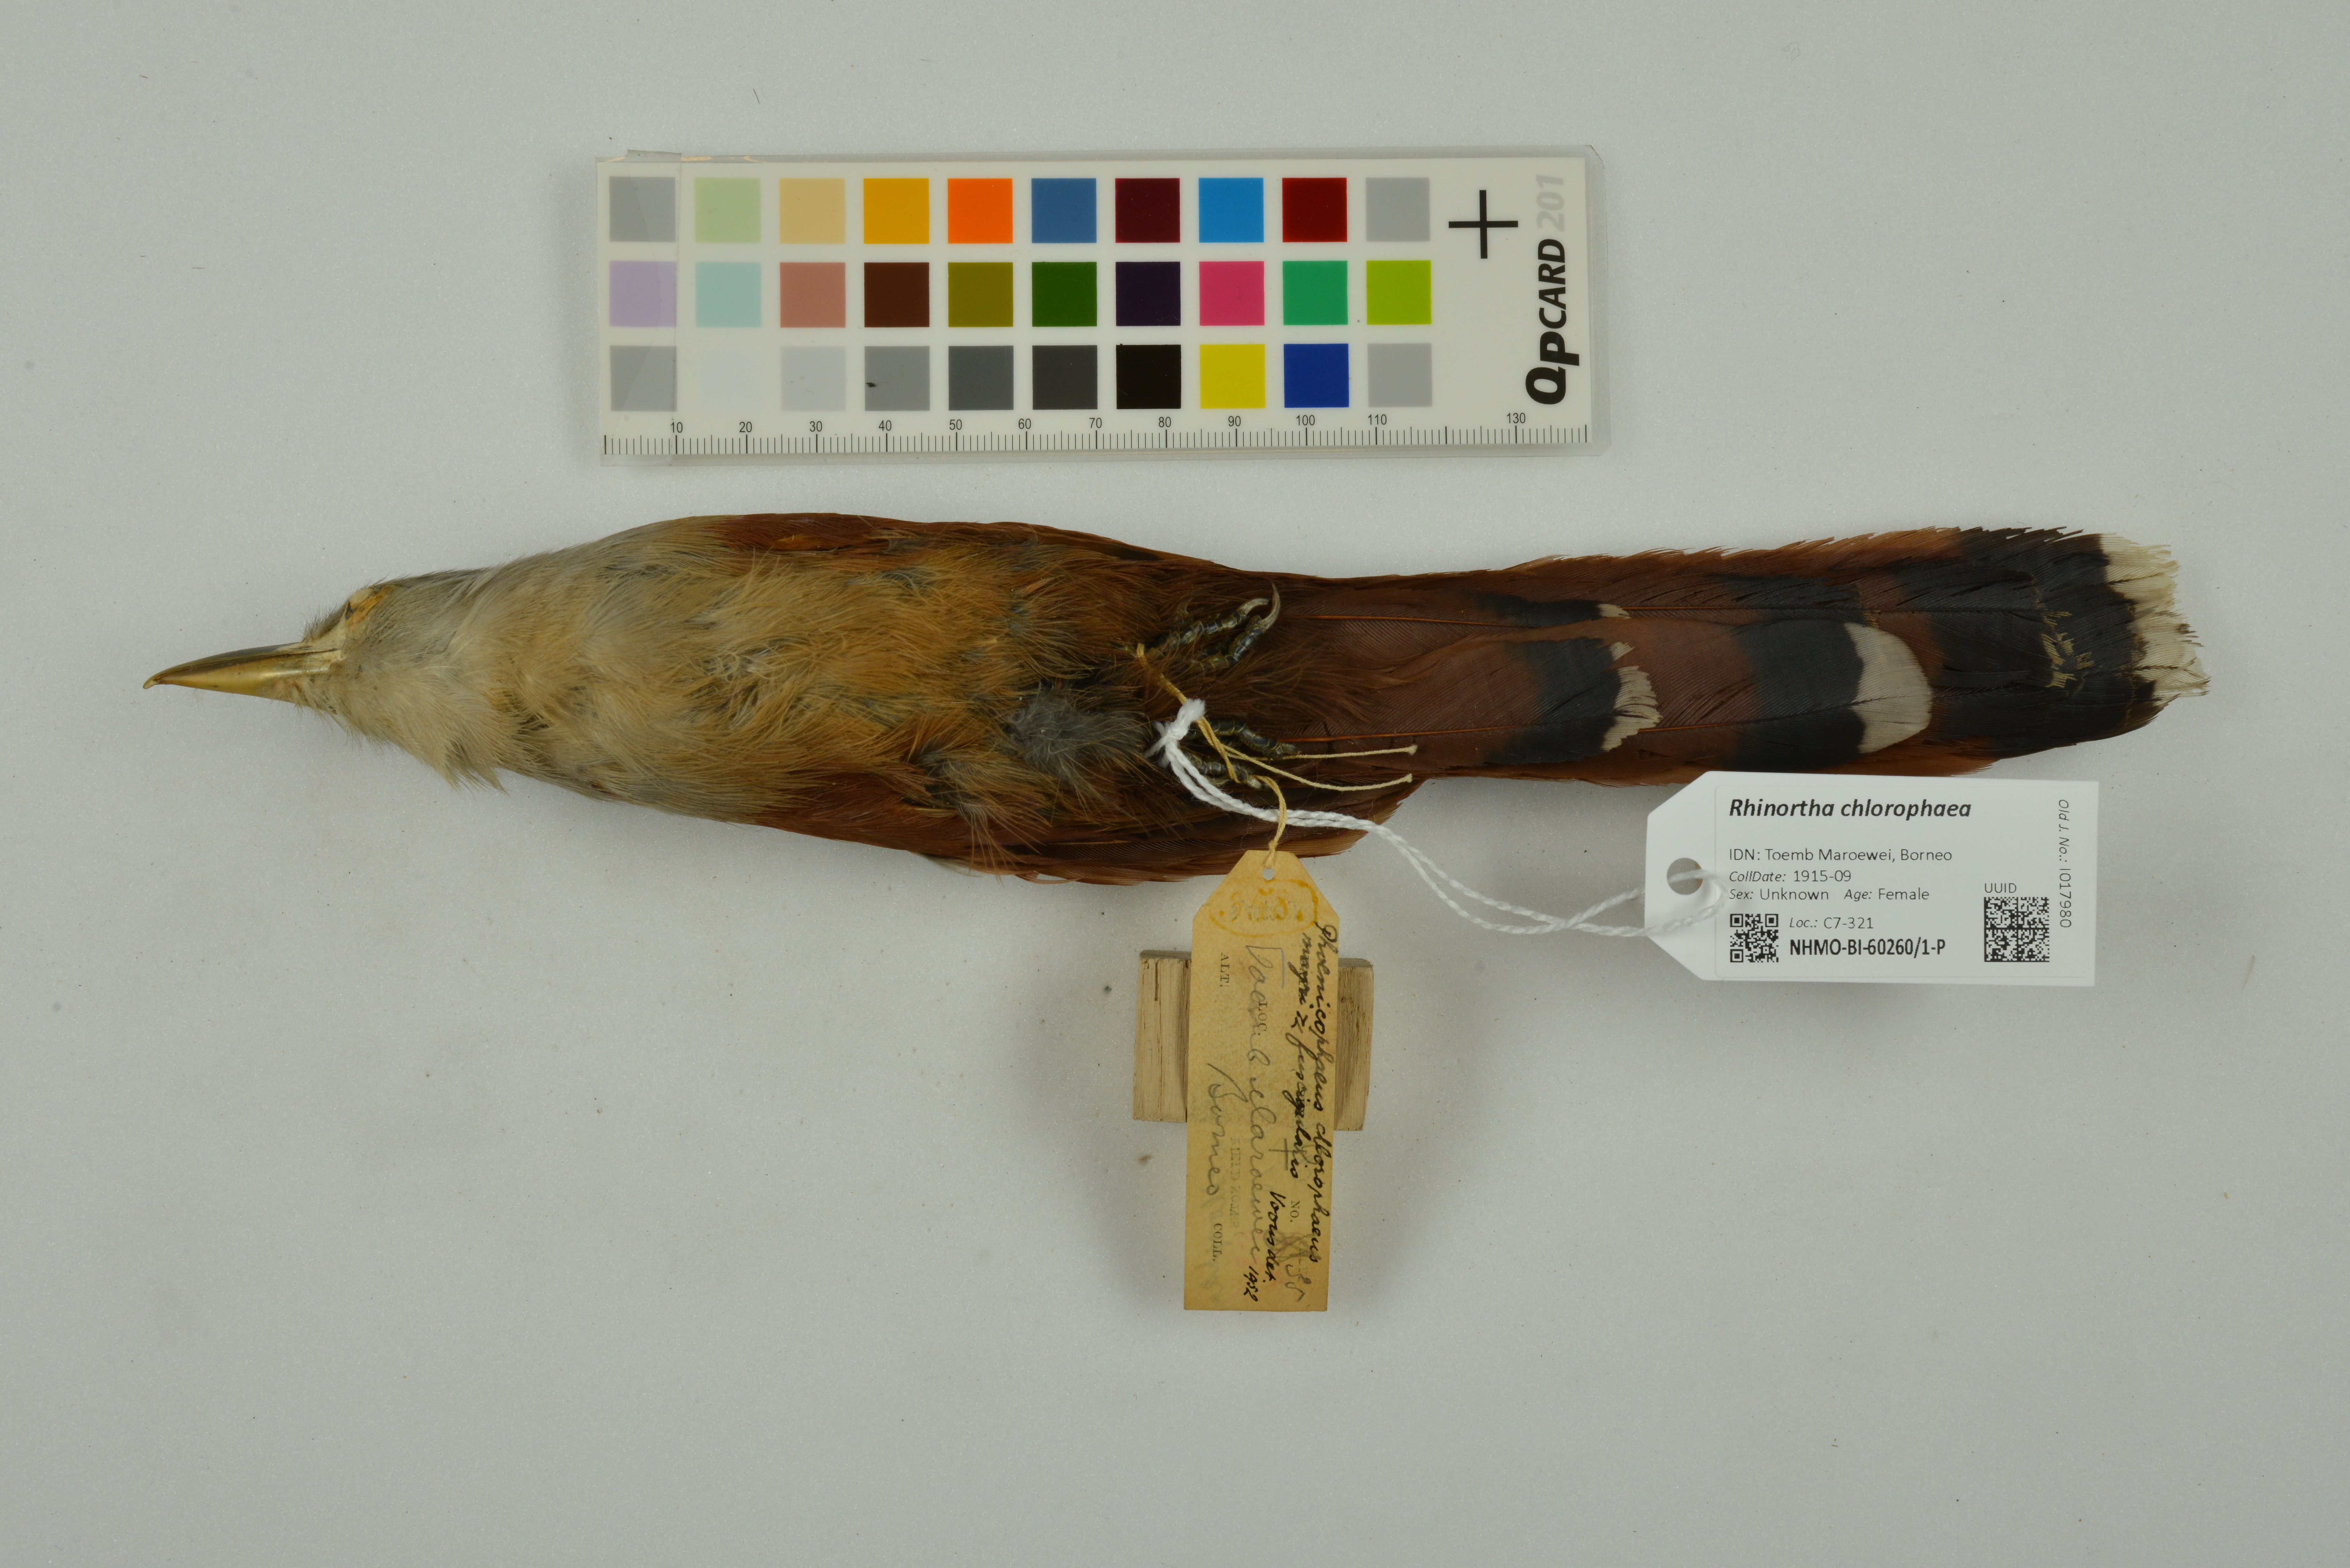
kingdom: Animalia
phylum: Chordata
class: Aves
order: Cuculiformes
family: Cuculidae
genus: Rhinortha
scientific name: Rhinortha chlorophaea
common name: Raffles's malkoha
